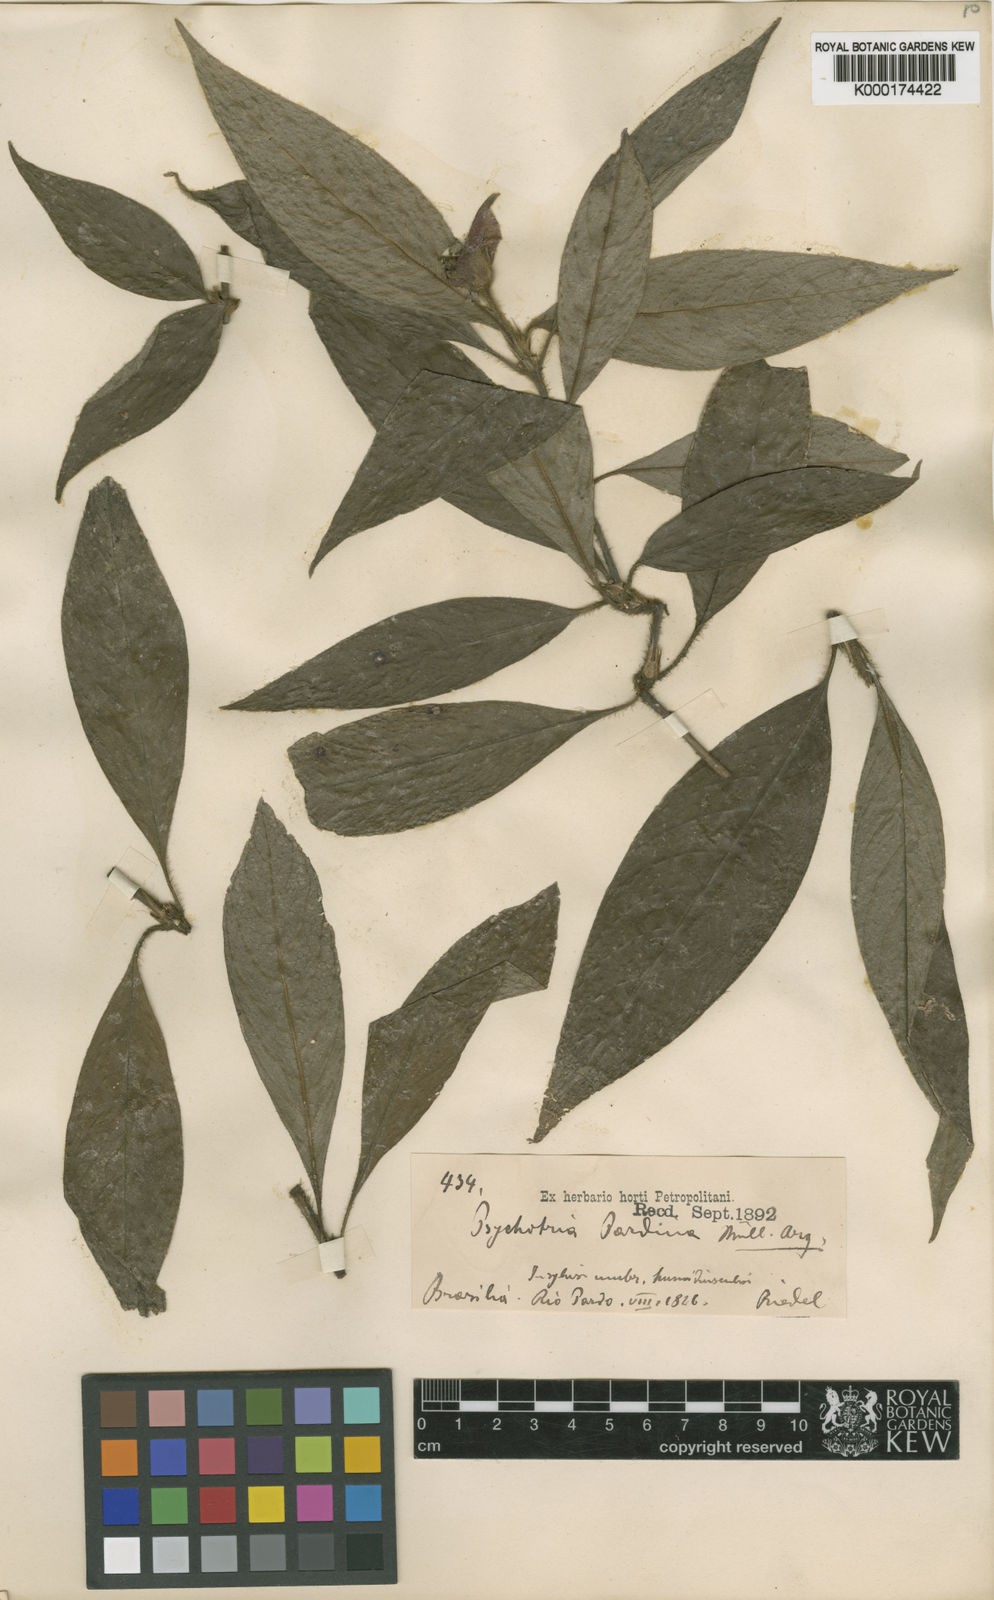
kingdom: Plantae
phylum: Tracheophyta
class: Magnoliopsida
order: Gentianales
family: Rubiaceae
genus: Psychotria
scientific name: Psychotria
